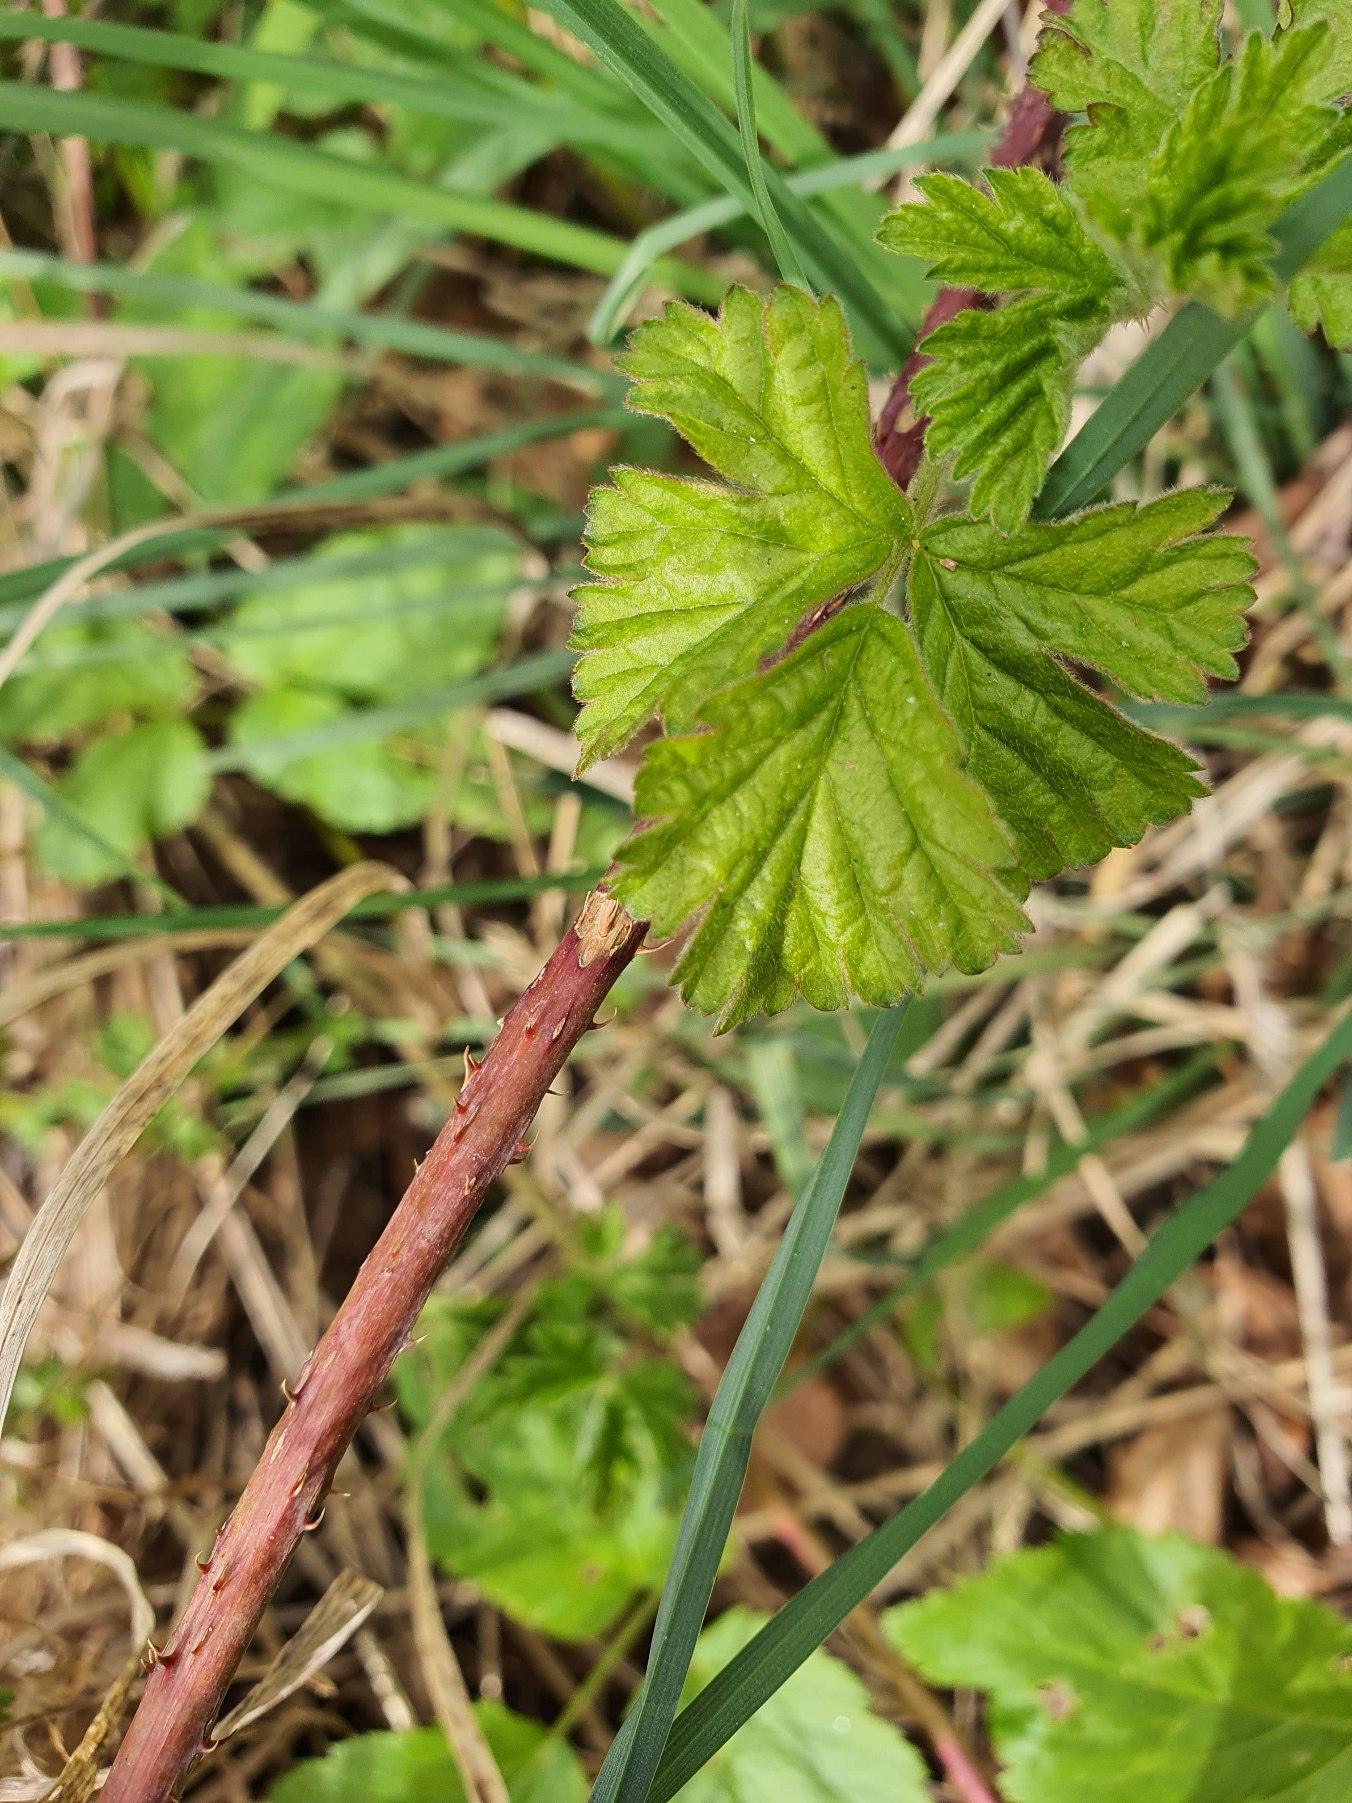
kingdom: Plantae
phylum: Tracheophyta
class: Magnoliopsida
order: Rosales
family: Rosaceae
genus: Rubus
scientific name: Rubus
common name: Klyngerslægten
